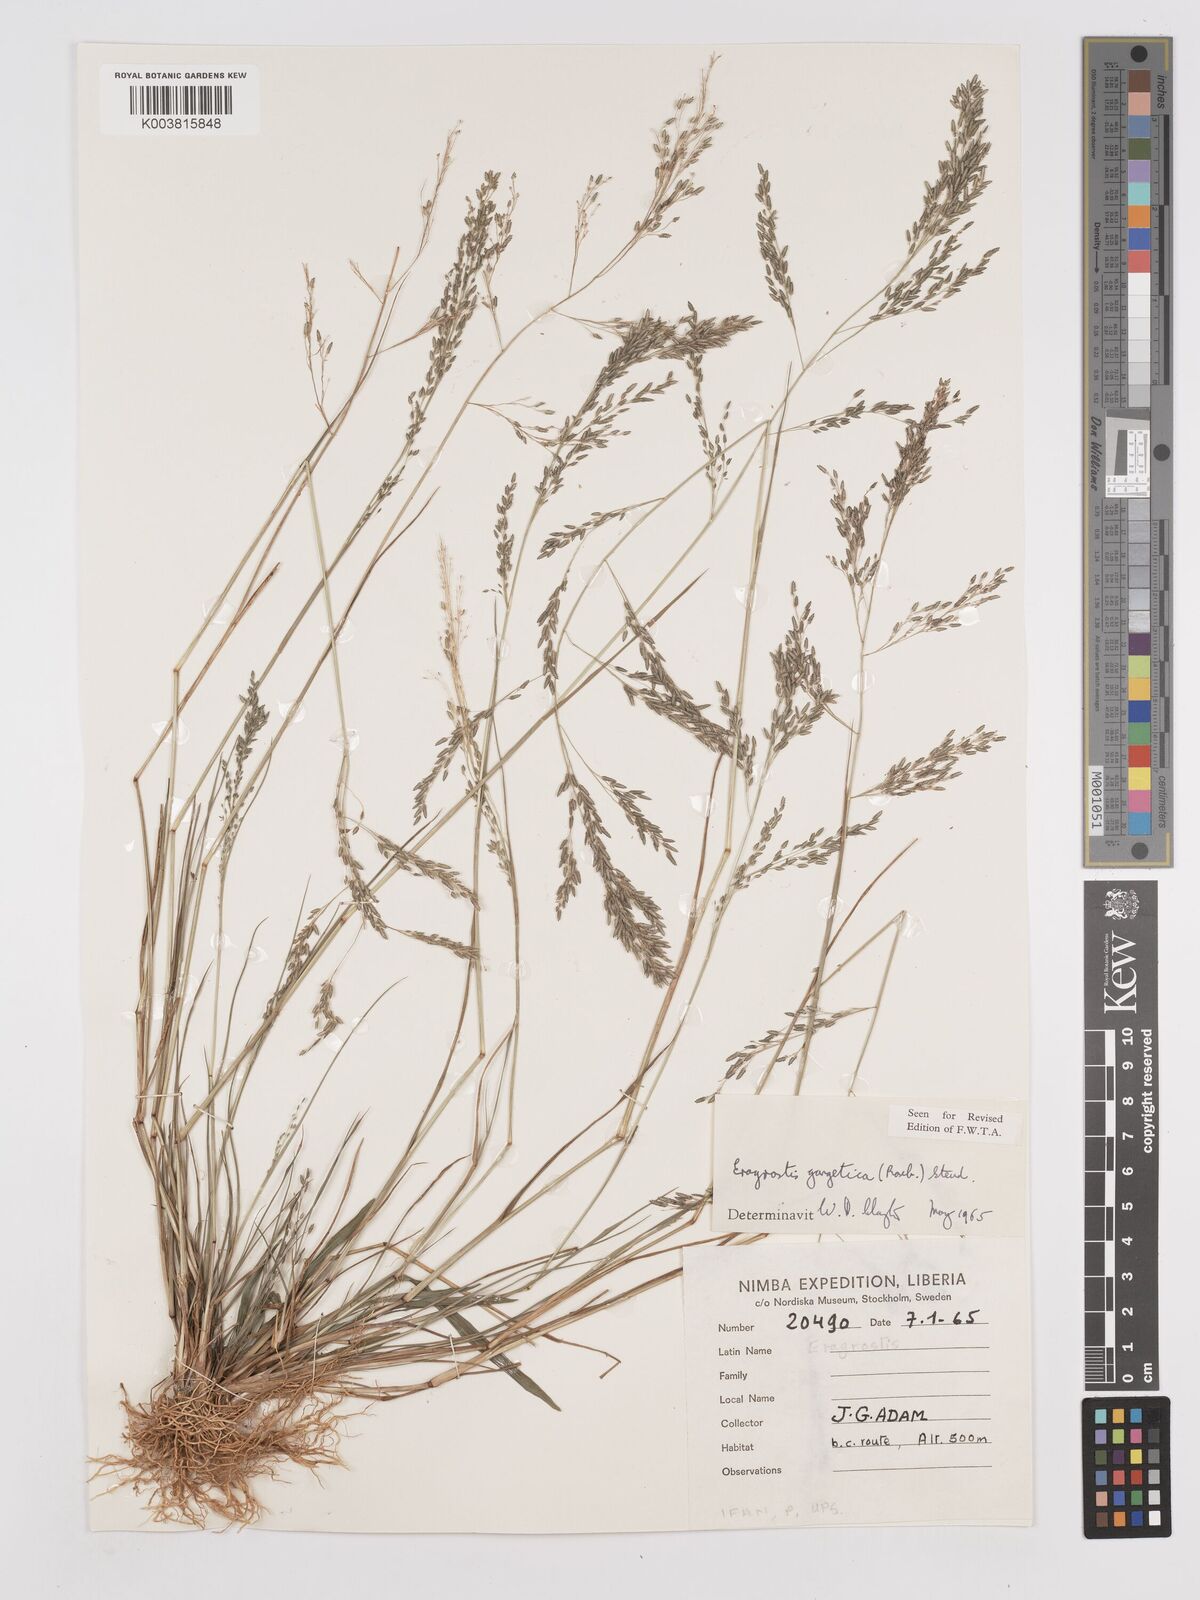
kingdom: Plantae
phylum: Tracheophyta
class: Liliopsida
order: Poales
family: Poaceae
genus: Eragrostis
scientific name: Eragrostis gangetica
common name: Slimflower lovegrass
